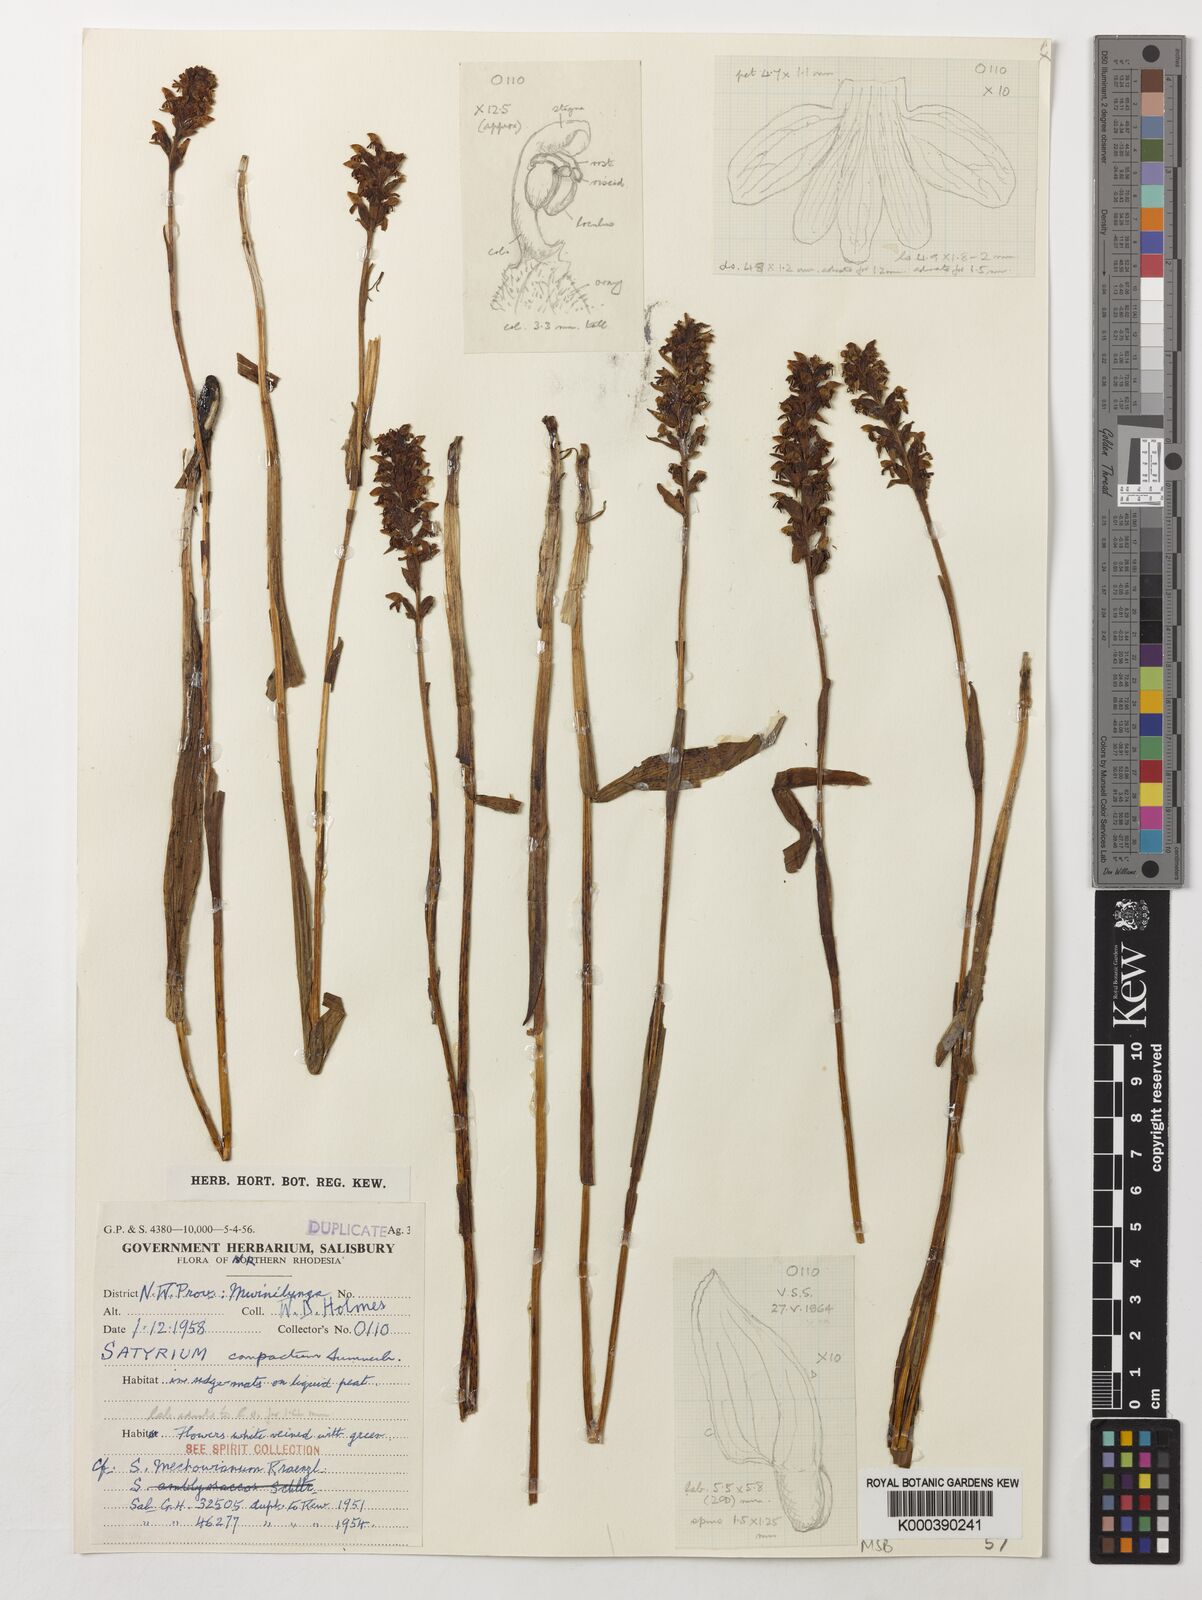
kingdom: Plantae
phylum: Tracheophyta
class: Liliopsida
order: Asparagales
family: Orchidaceae
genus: Satyrium
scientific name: Satyrium compactum
